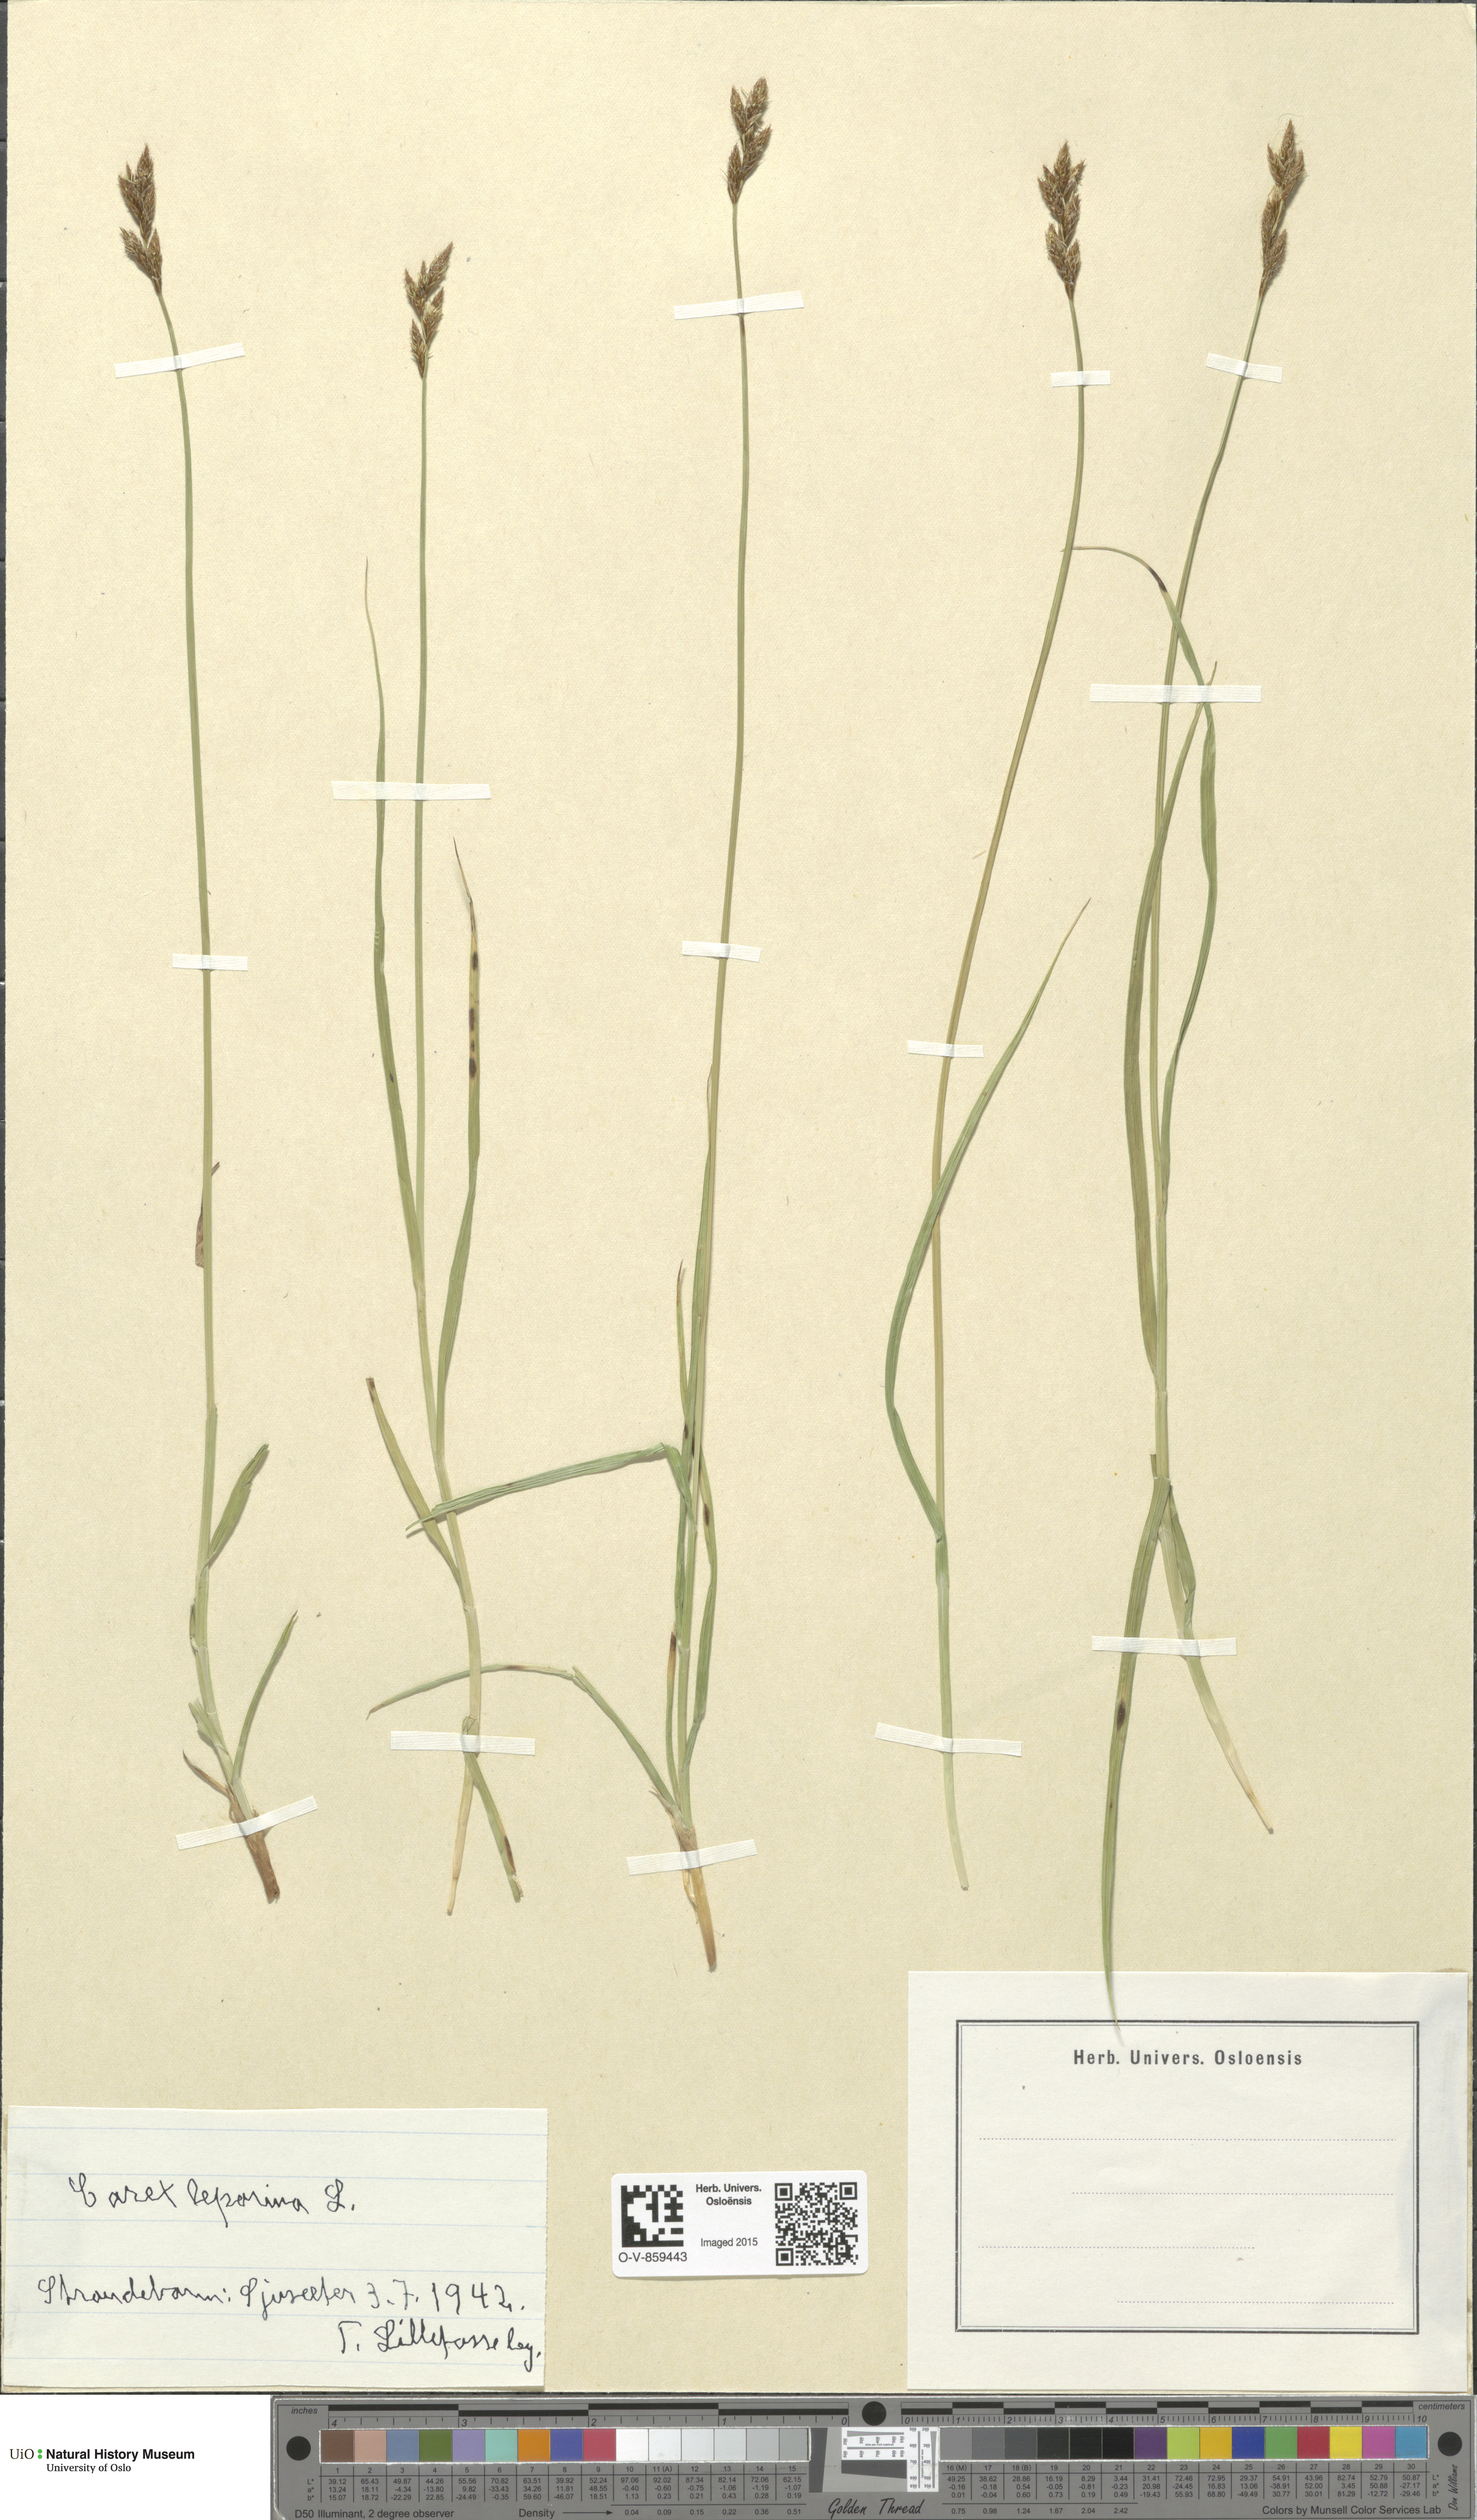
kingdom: Plantae
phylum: Tracheophyta
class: Liliopsida
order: Poales
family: Cyperaceae
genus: Carex
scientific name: Carex leporina
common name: Oval sedge
